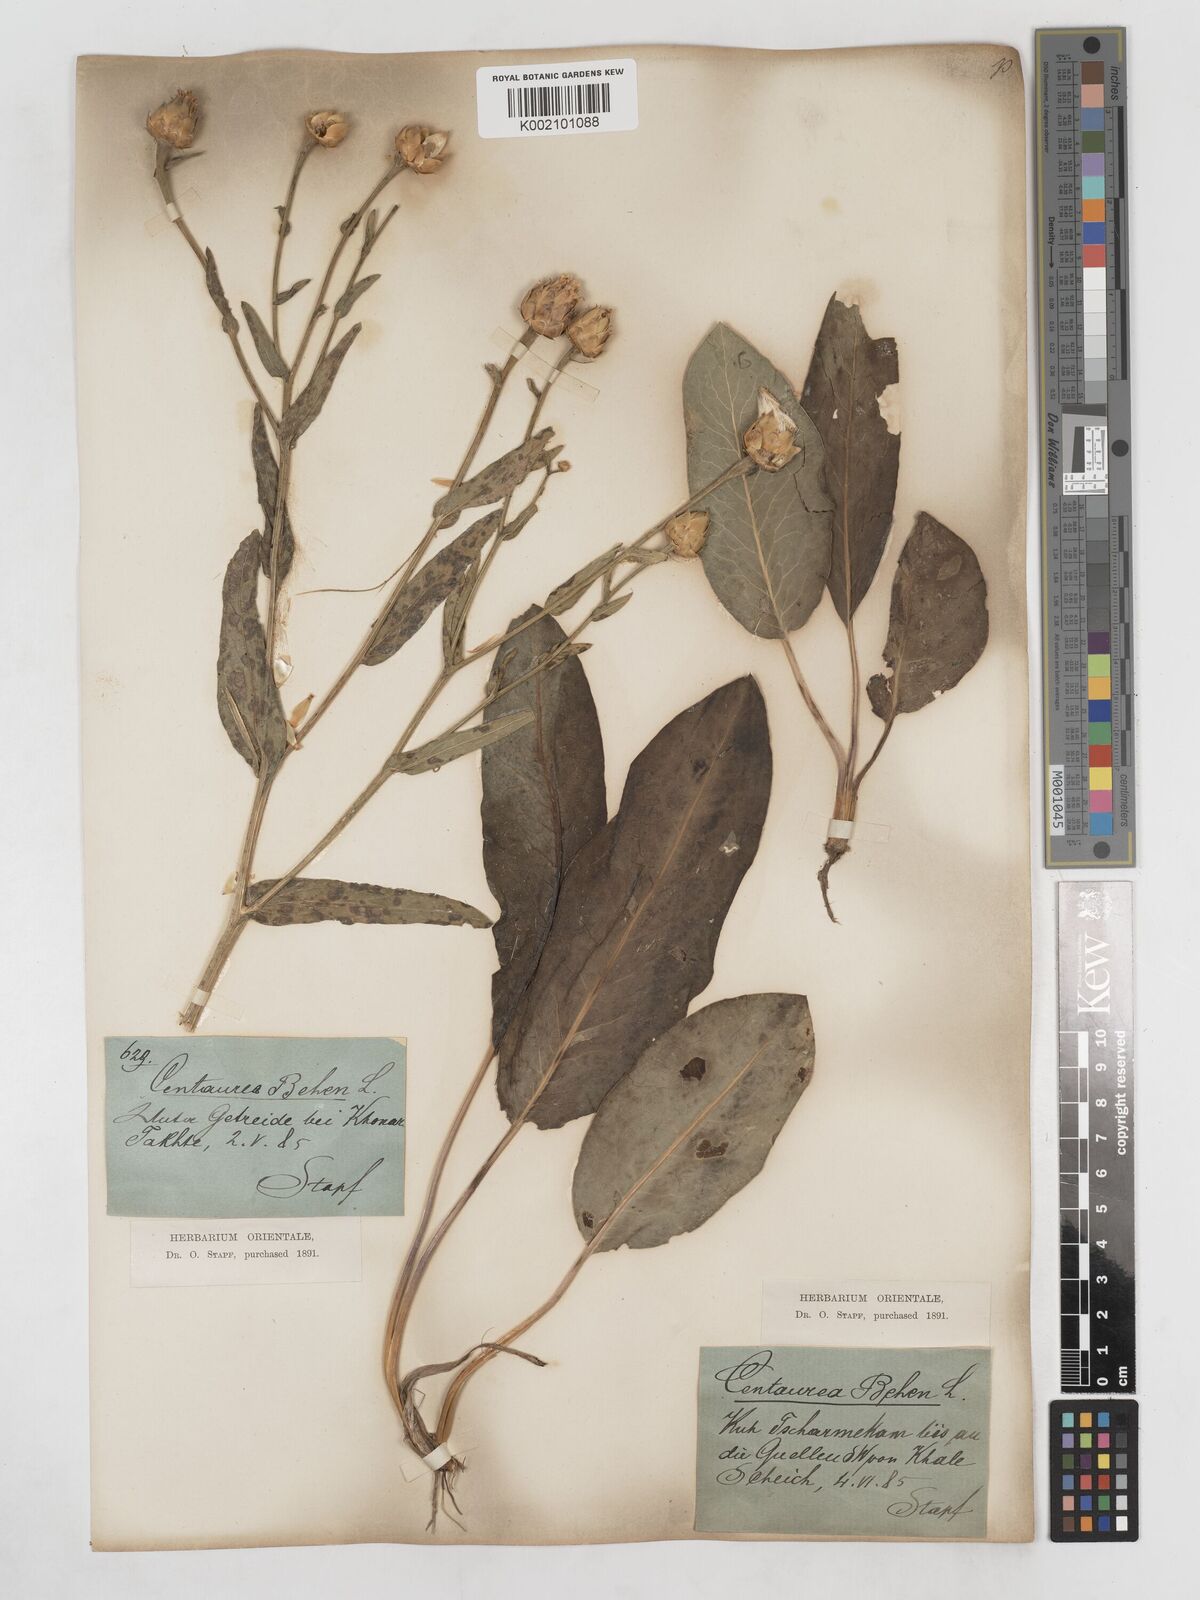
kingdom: Plantae
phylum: Tracheophyta
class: Magnoliopsida
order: Asterales
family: Asteraceae
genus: Centaurea
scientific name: Centaurea behen
